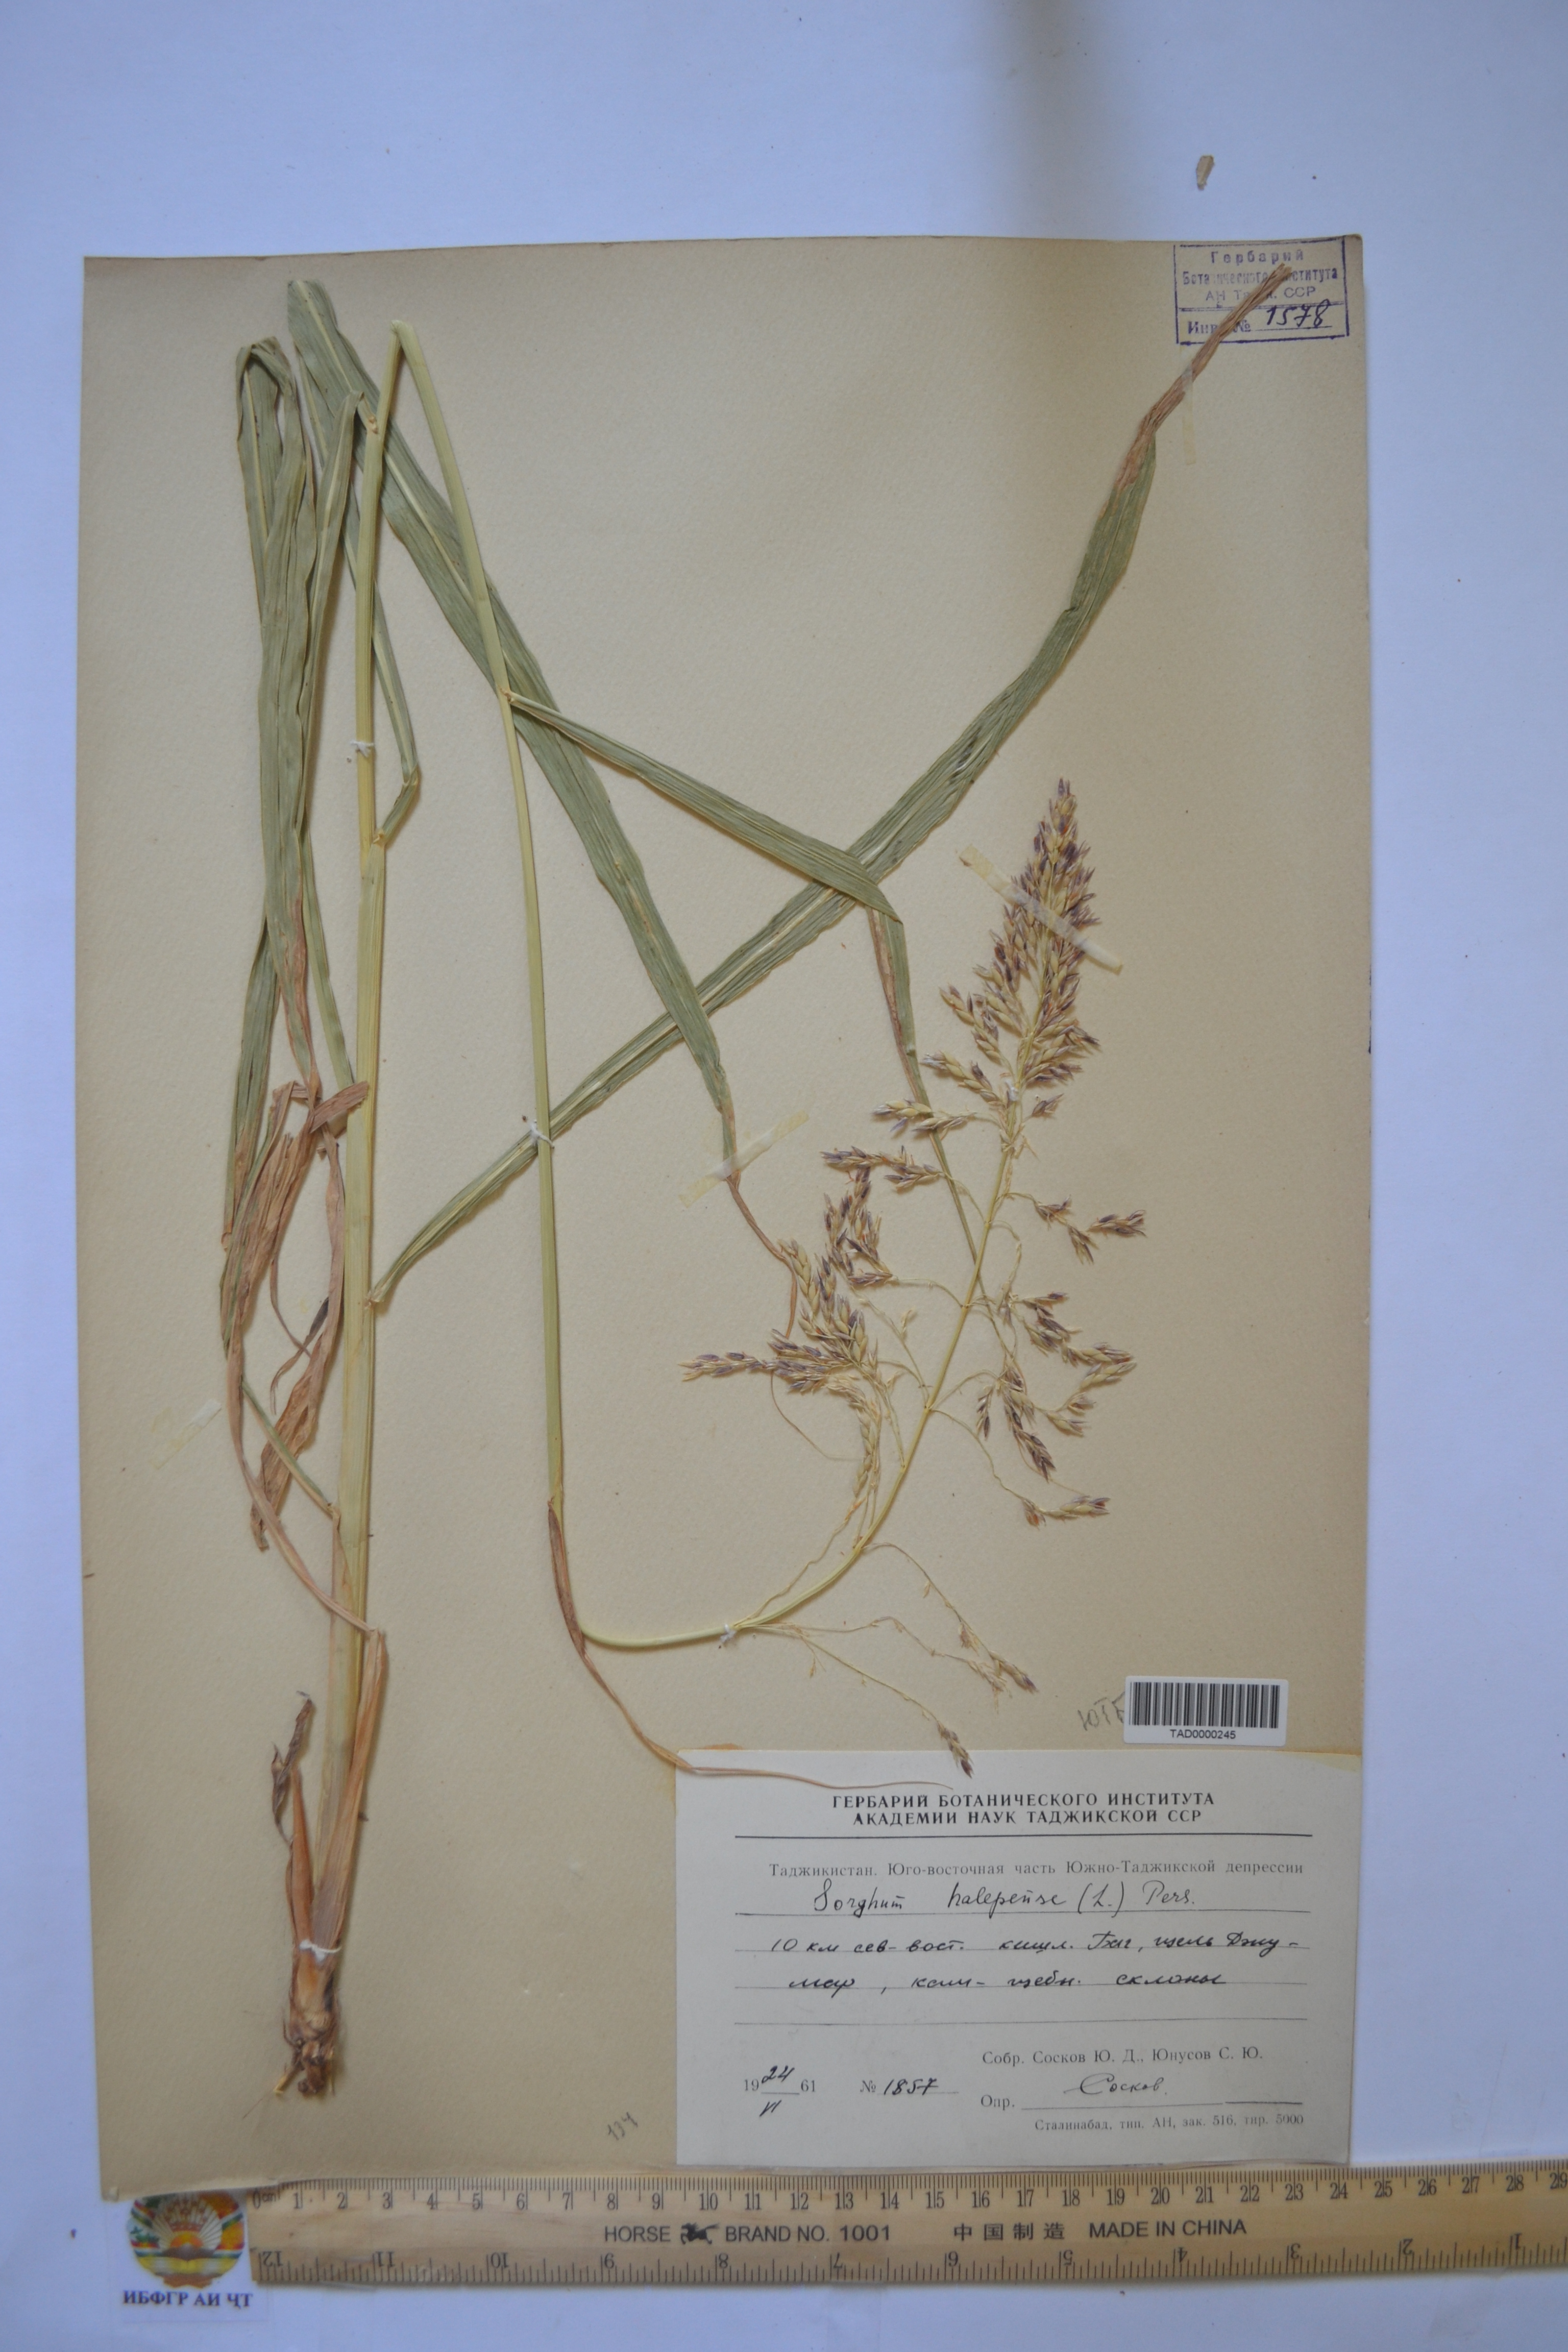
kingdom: Plantae
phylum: Tracheophyta
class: Liliopsida
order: Poales
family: Poaceae
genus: Sorghum
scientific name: Sorghum halepense
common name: Johnson-grass
